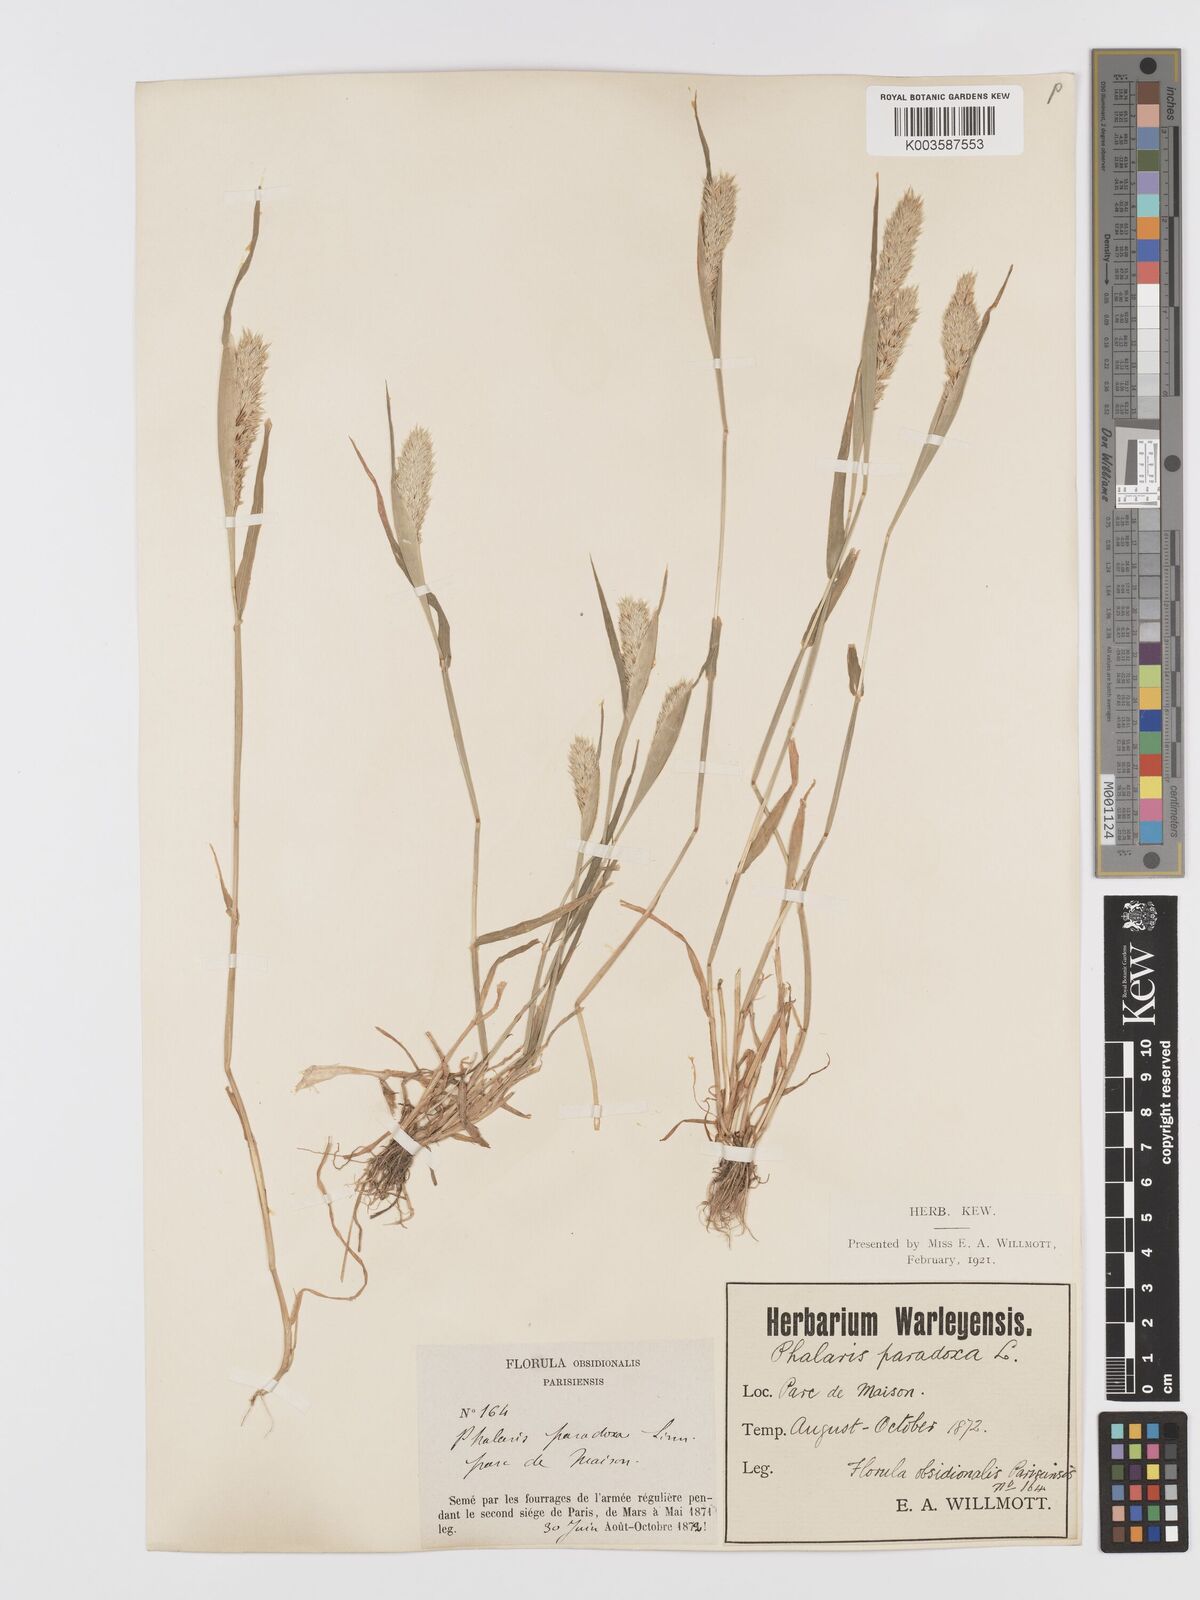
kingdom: Plantae
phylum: Tracheophyta
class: Liliopsida
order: Poales
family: Poaceae
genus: Phalaris
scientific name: Phalaris paradoxa
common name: Awned canary-grass
